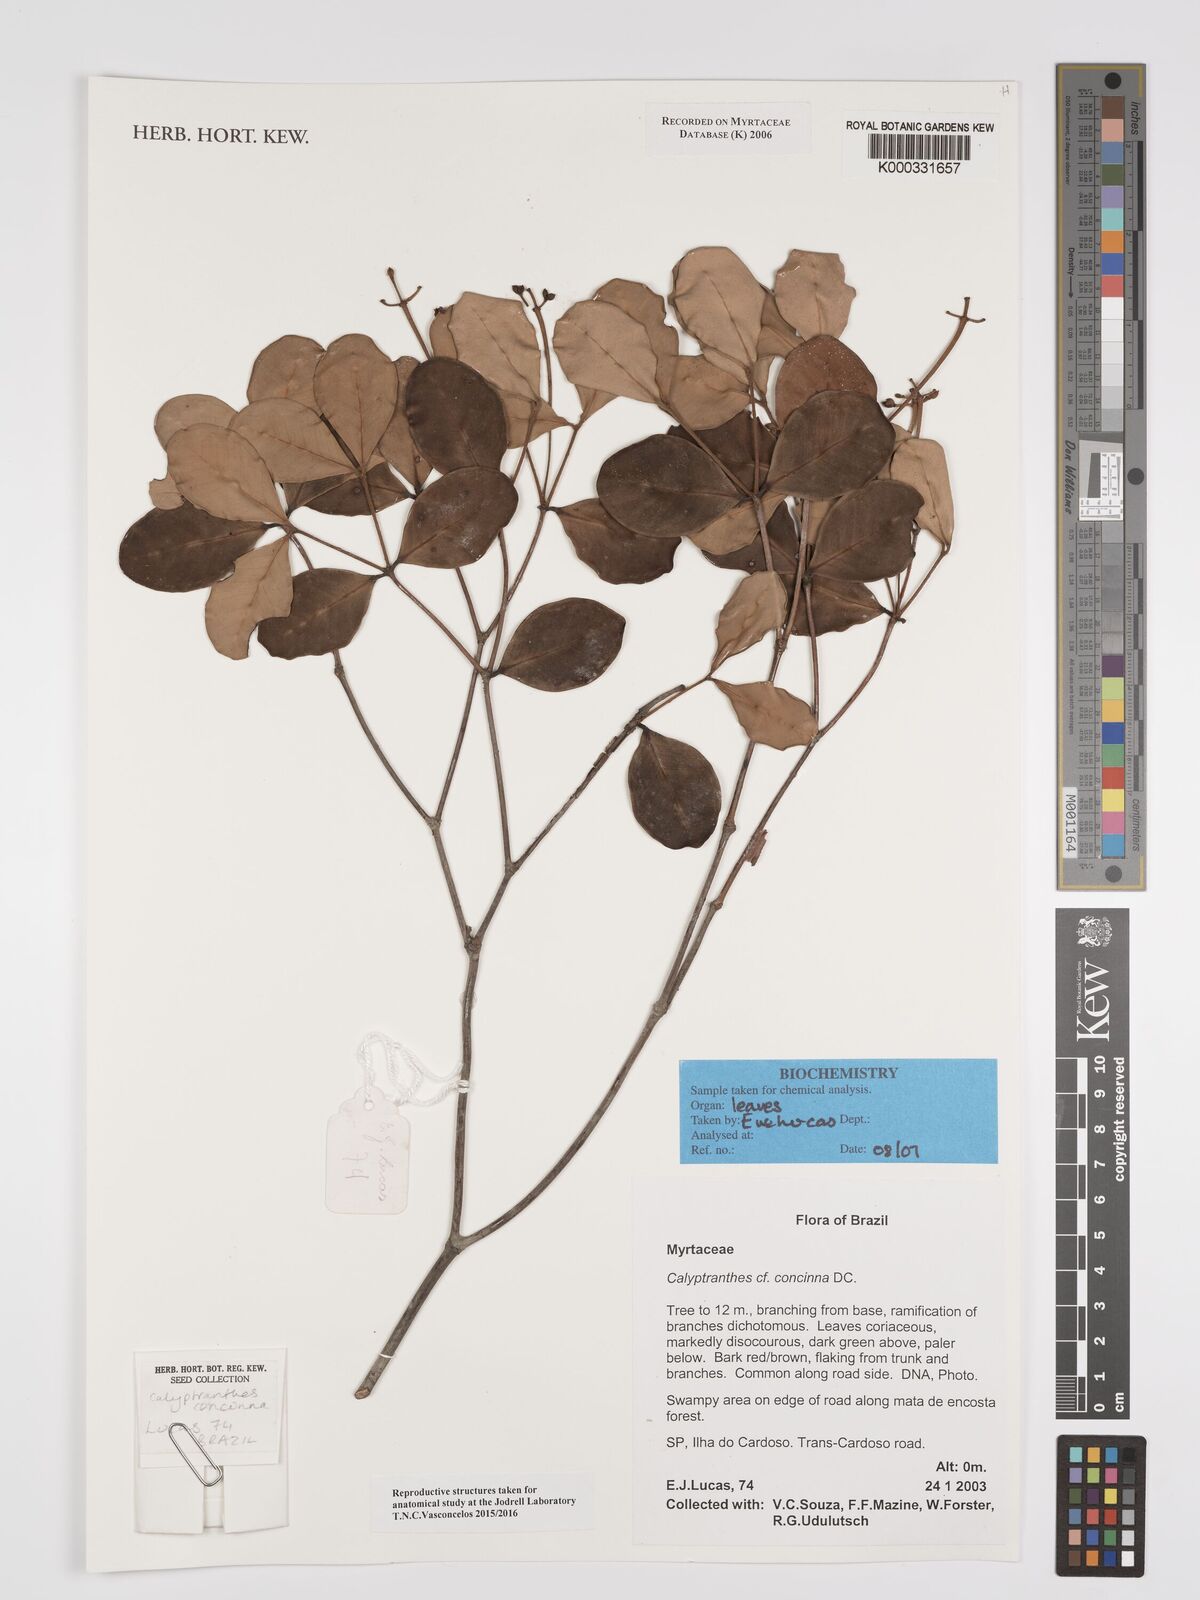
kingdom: Plantae
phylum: Tracheophyta
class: Magnoliopsida
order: Myrtales
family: Myrtaceae
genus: Myrcia
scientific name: Myrcia cruciflora
